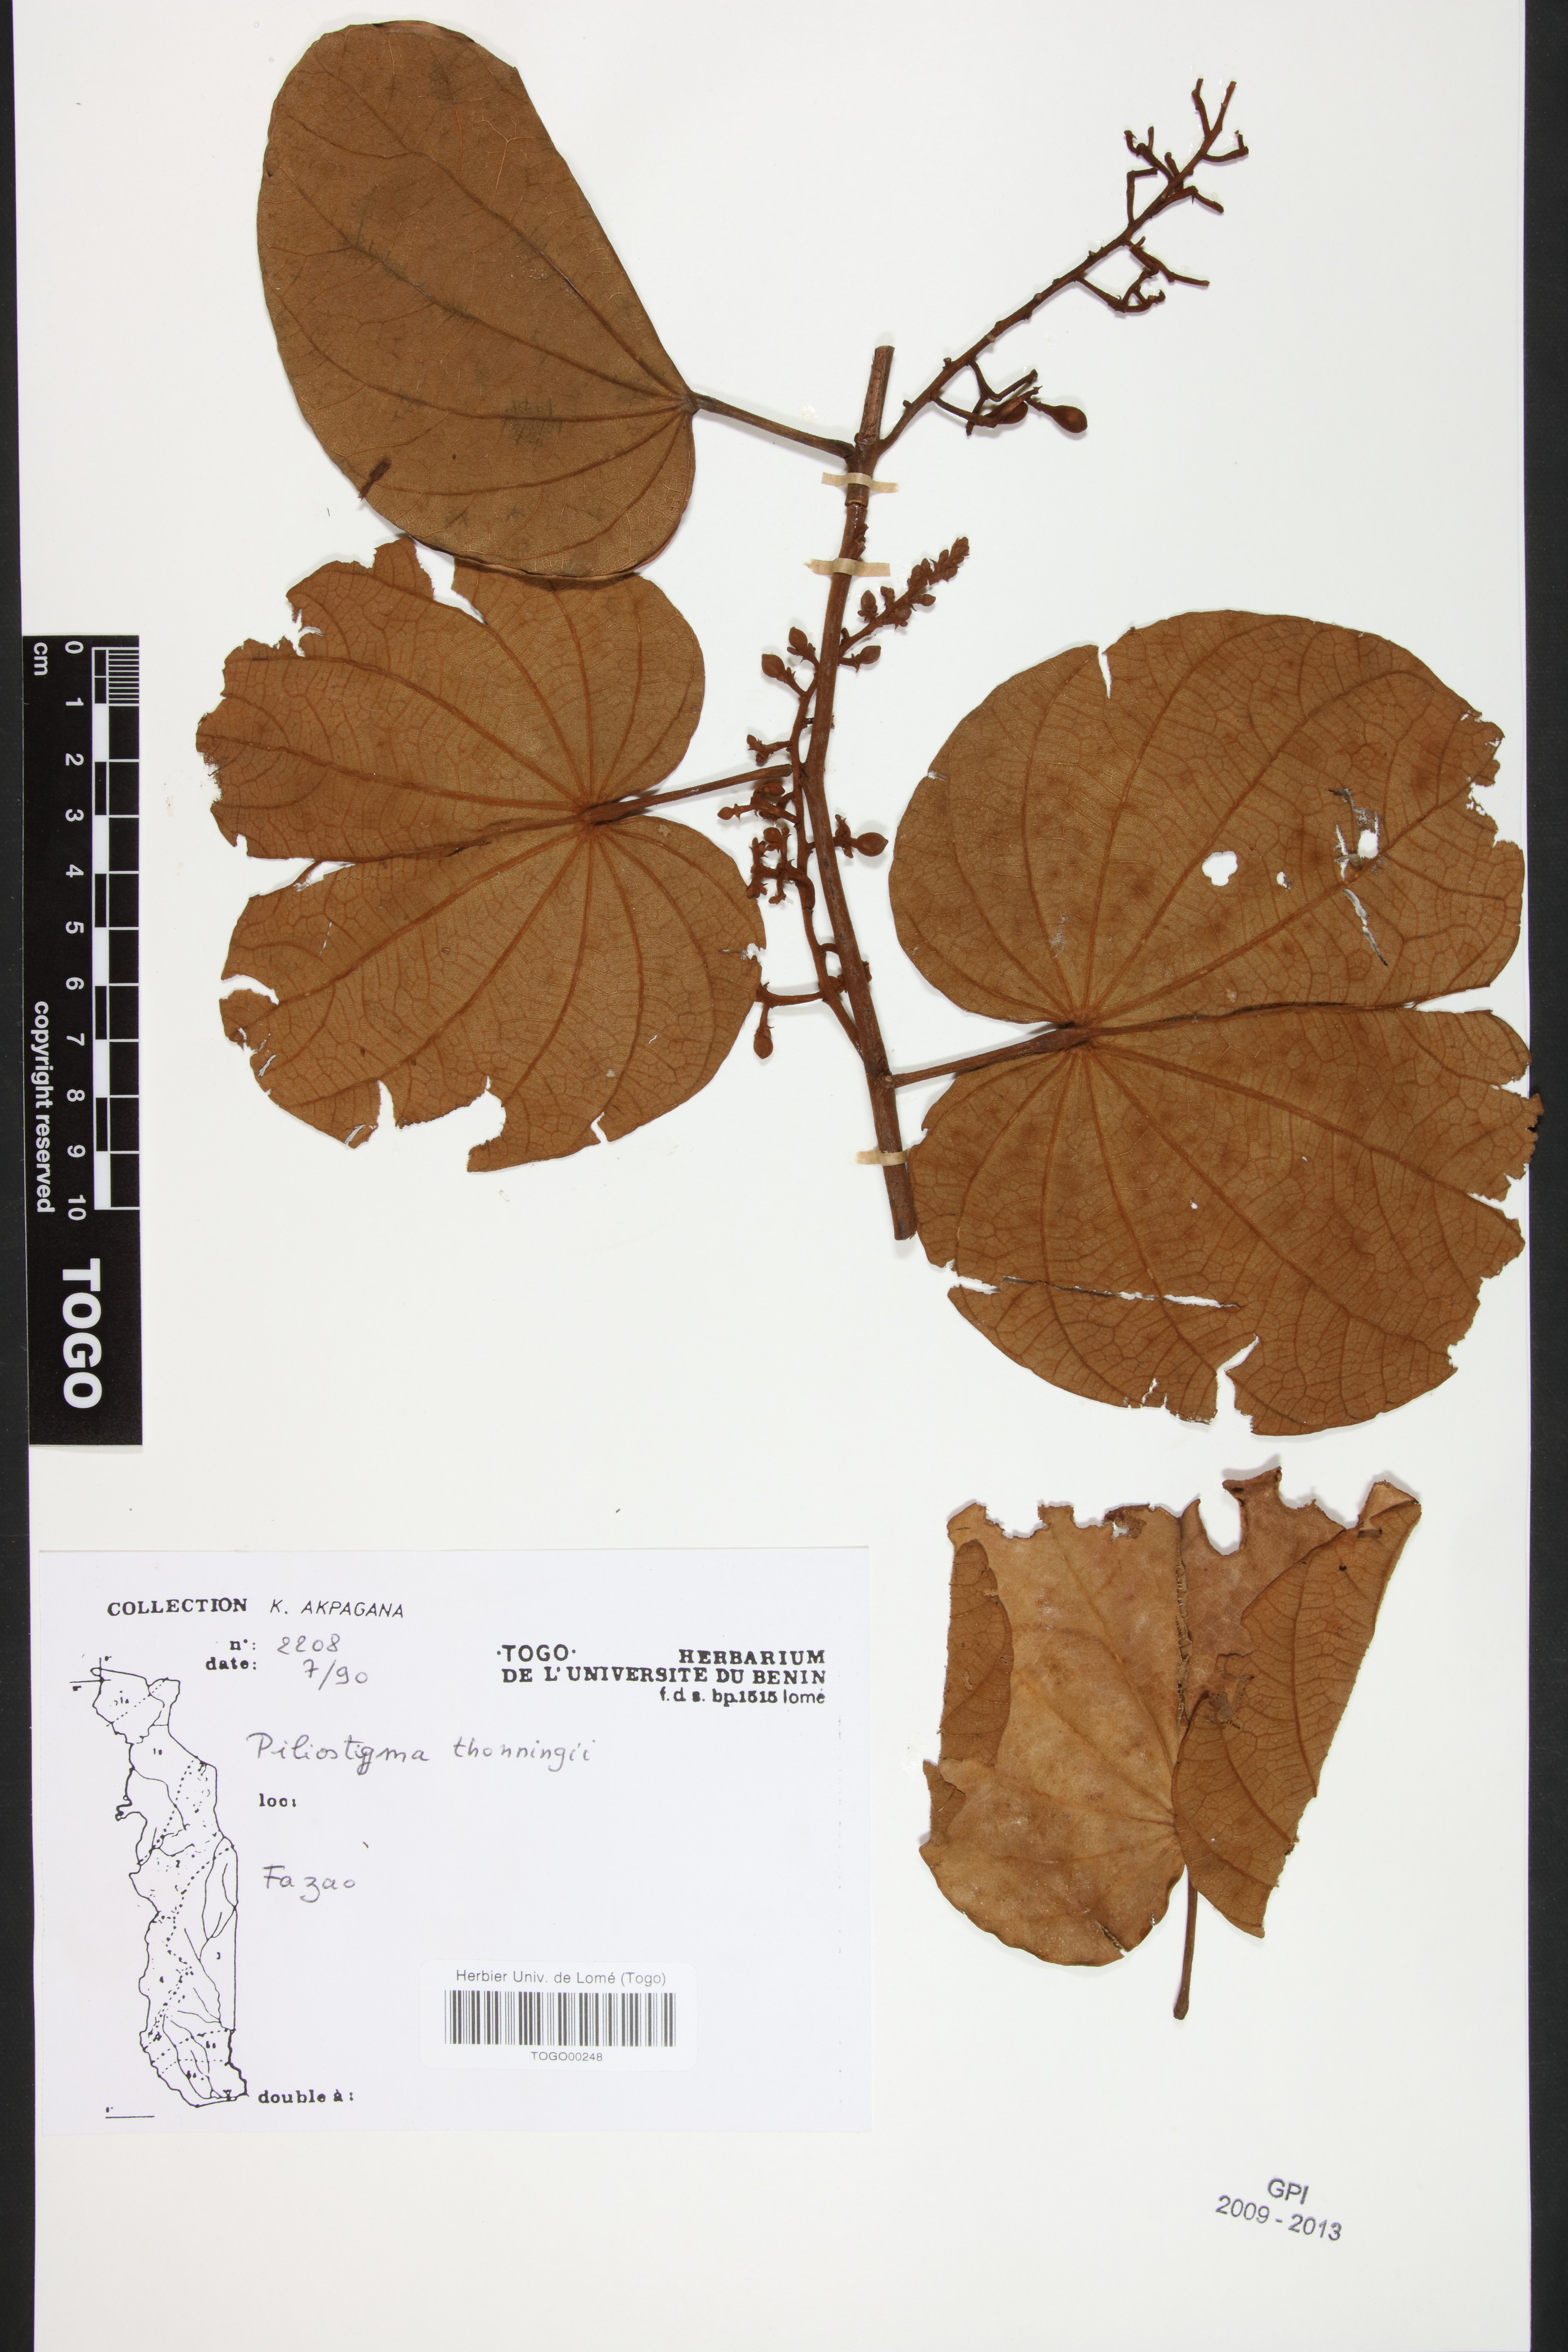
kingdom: Plantae
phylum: Tracheophyta
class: Magnoliopsida
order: Fabales
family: Fabaceae
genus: Piliostigma
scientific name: Piliostigma thonningii
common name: Kao
